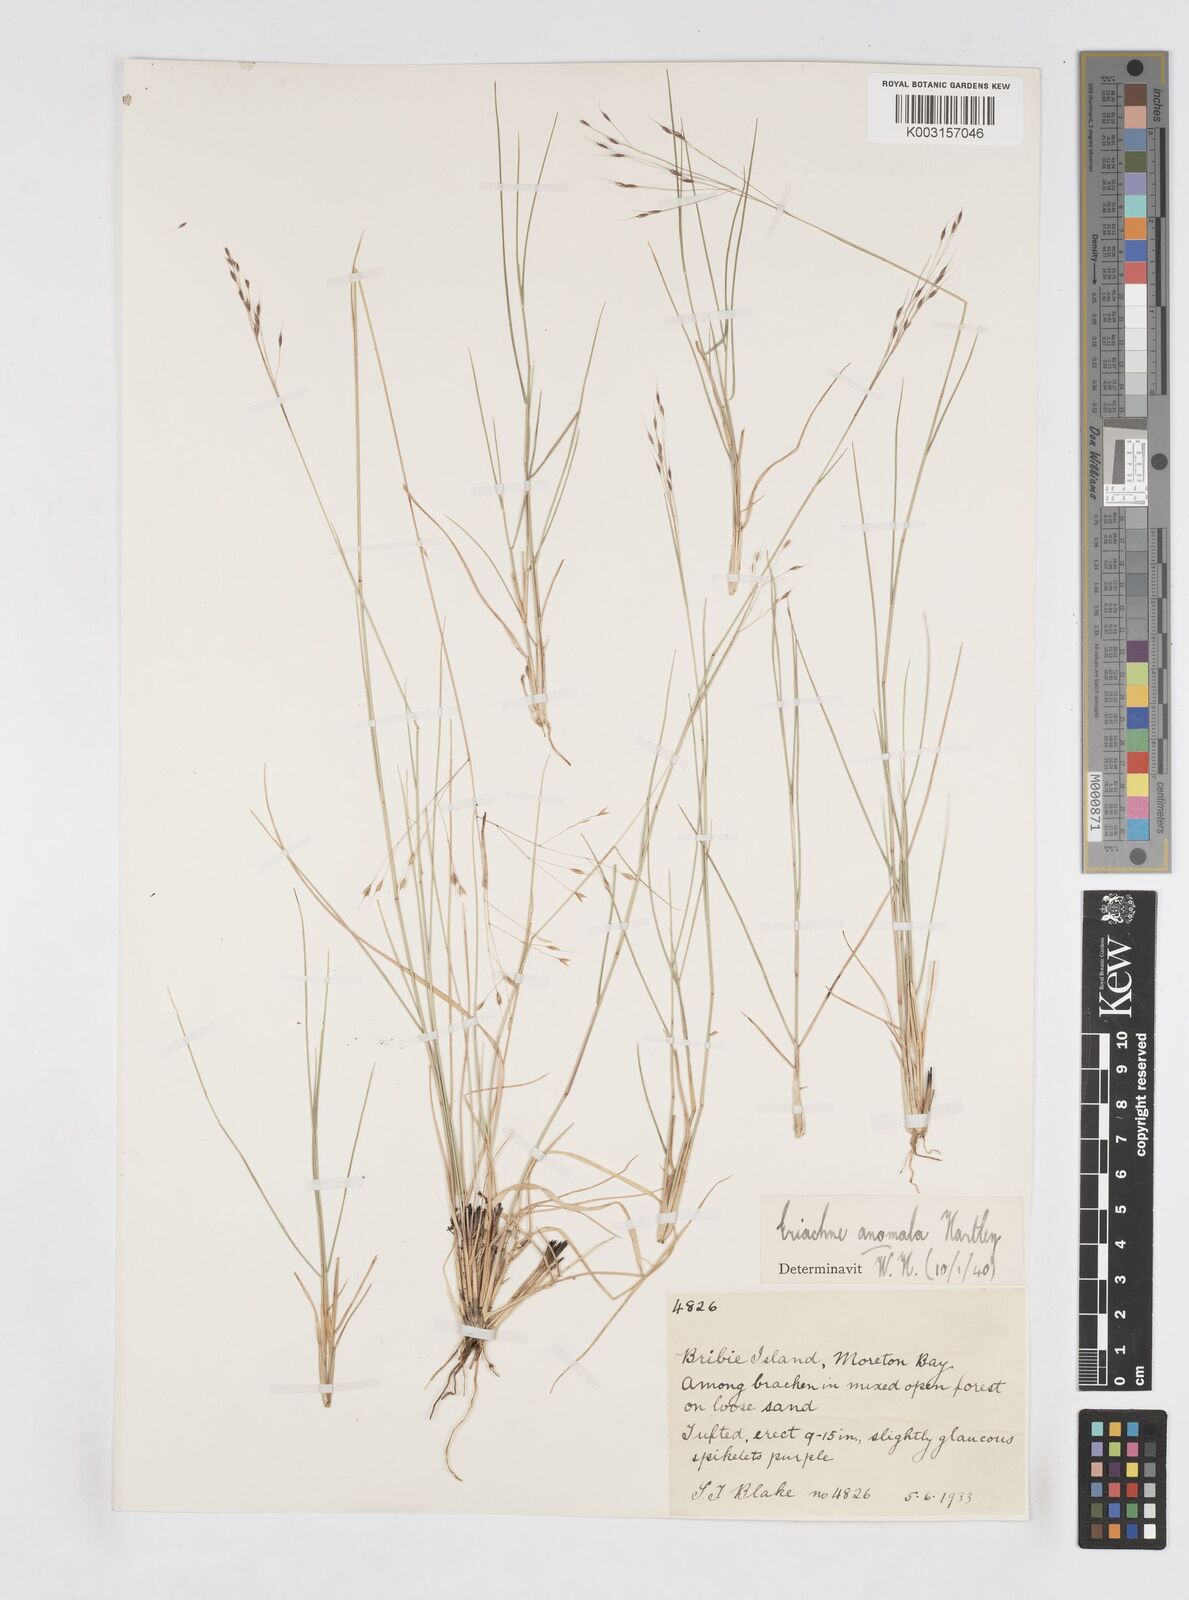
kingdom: Plantae
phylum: Tracheophyta
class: Liliopsida
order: Poales
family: Poaceae
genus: Eriachne
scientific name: Eriachne pallescens
